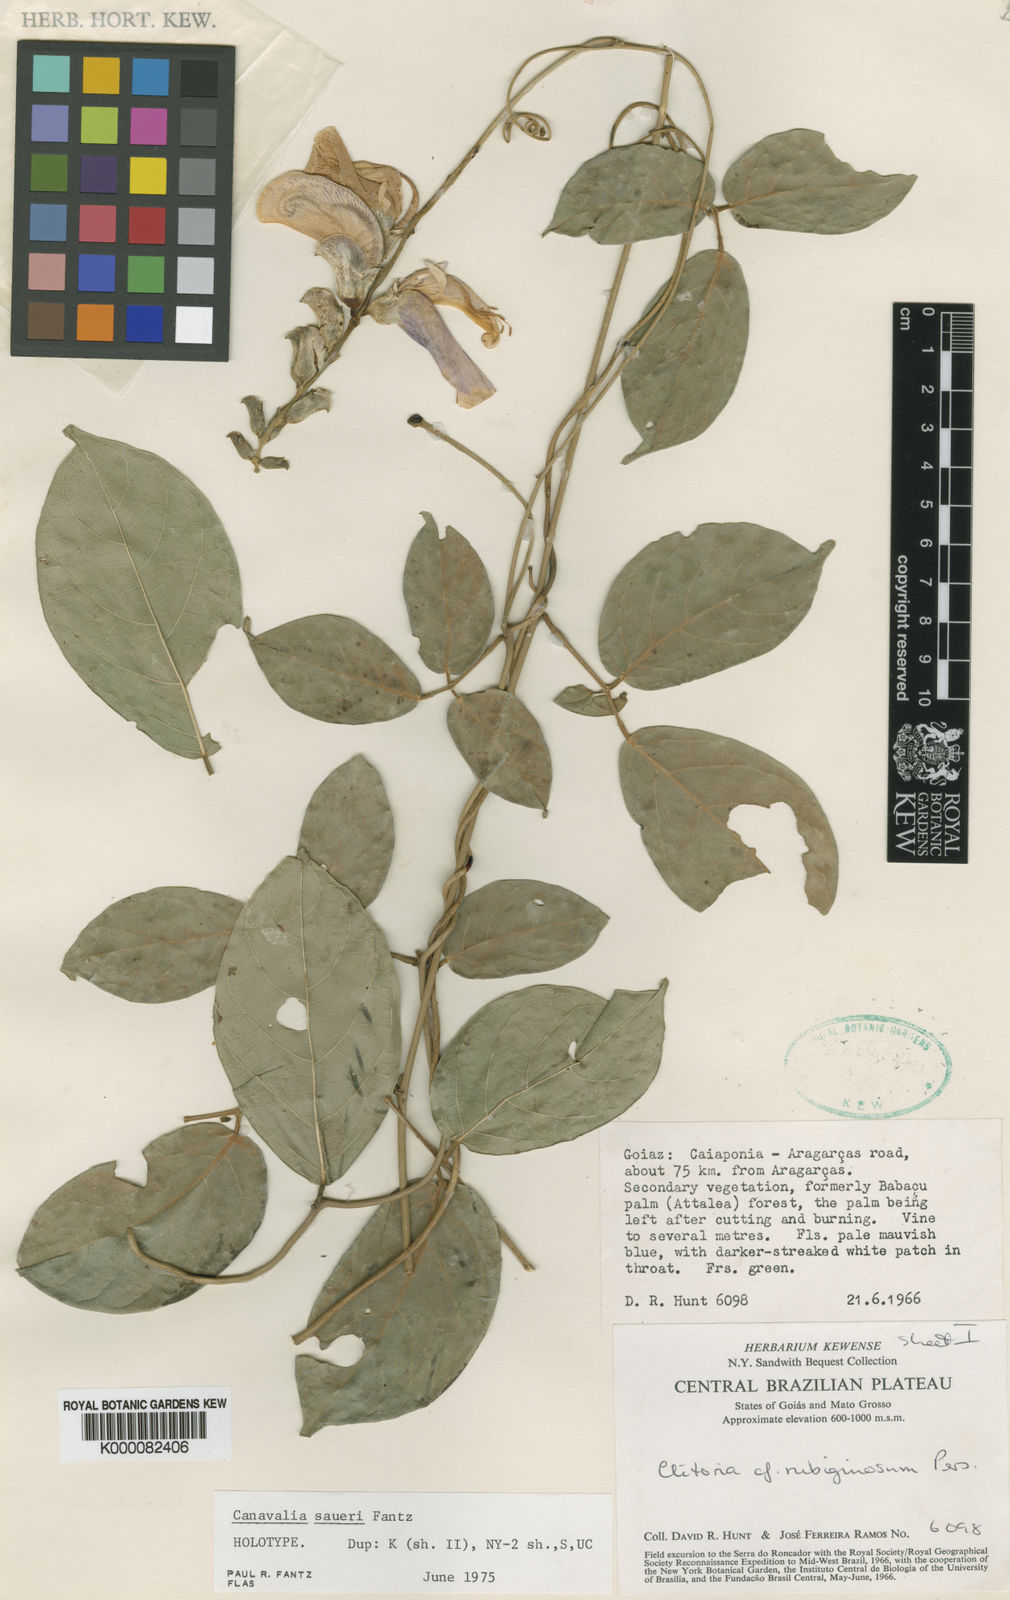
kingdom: Plantae
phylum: Tracheophyta
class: Magnoliopsida
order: Fabales
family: Fabaceae
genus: Canavalia
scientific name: Canavalia saueri
